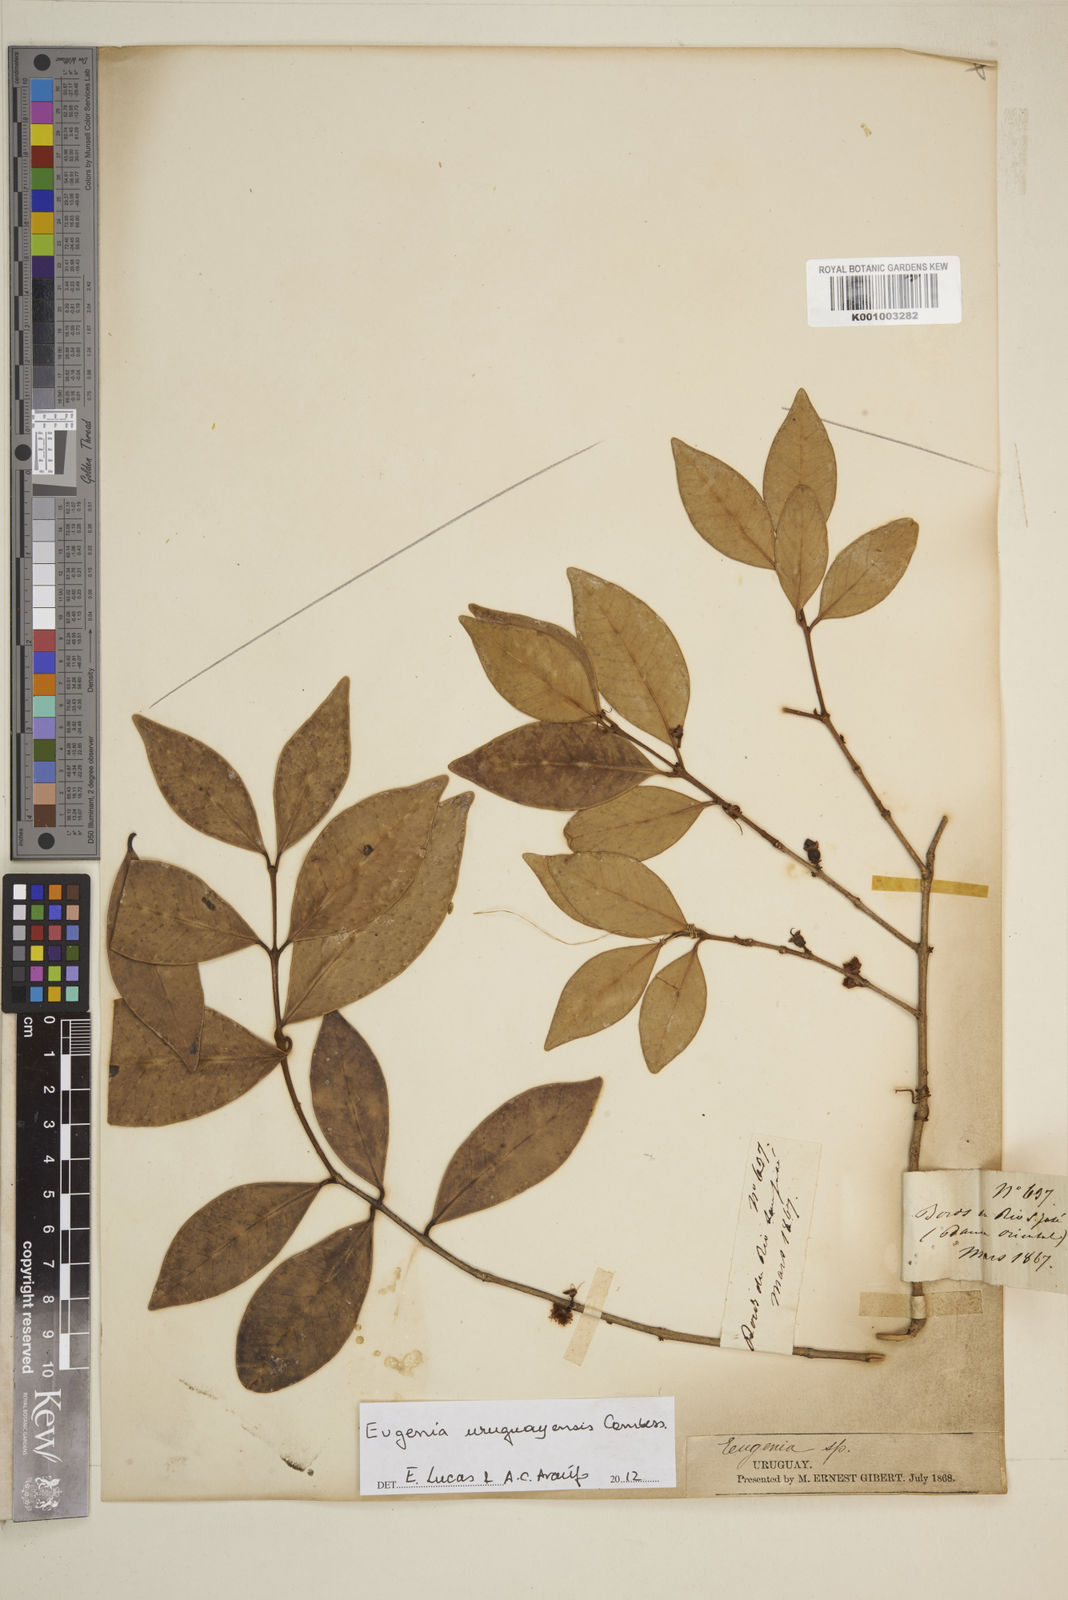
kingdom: Plantae
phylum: Tracheophyta
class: Magnoliopsida
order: Myrtales
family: Myrtaceae
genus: Eugenia
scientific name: Eugenia
